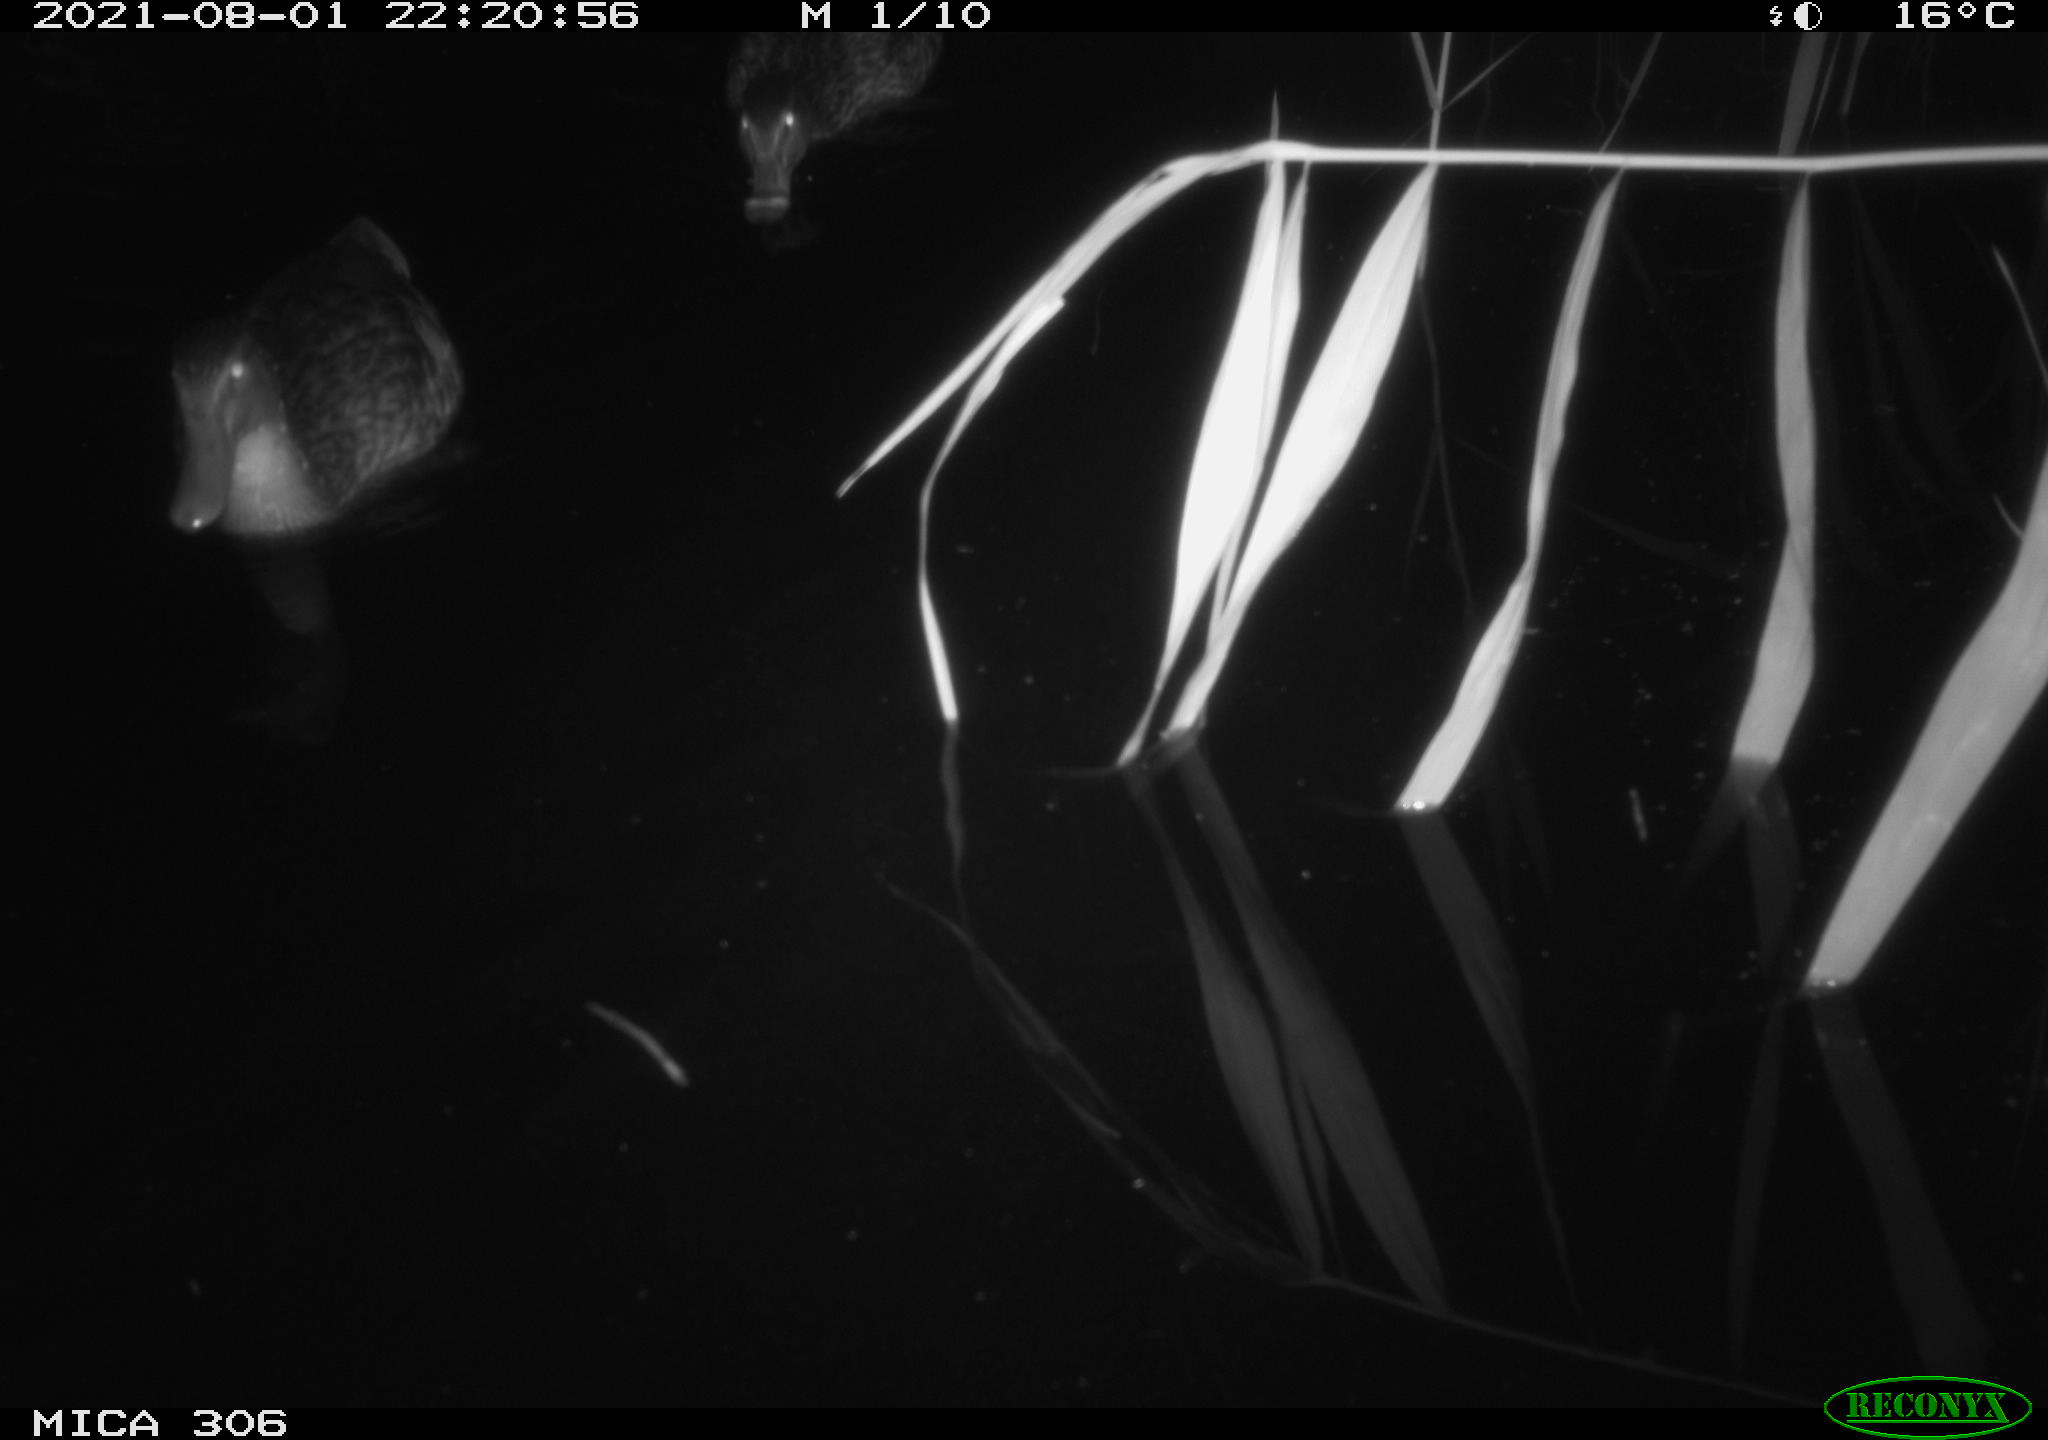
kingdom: Animalia
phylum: Chordata
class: Aves
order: Anseriformes
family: Anatidae
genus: Anas
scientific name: Anas
